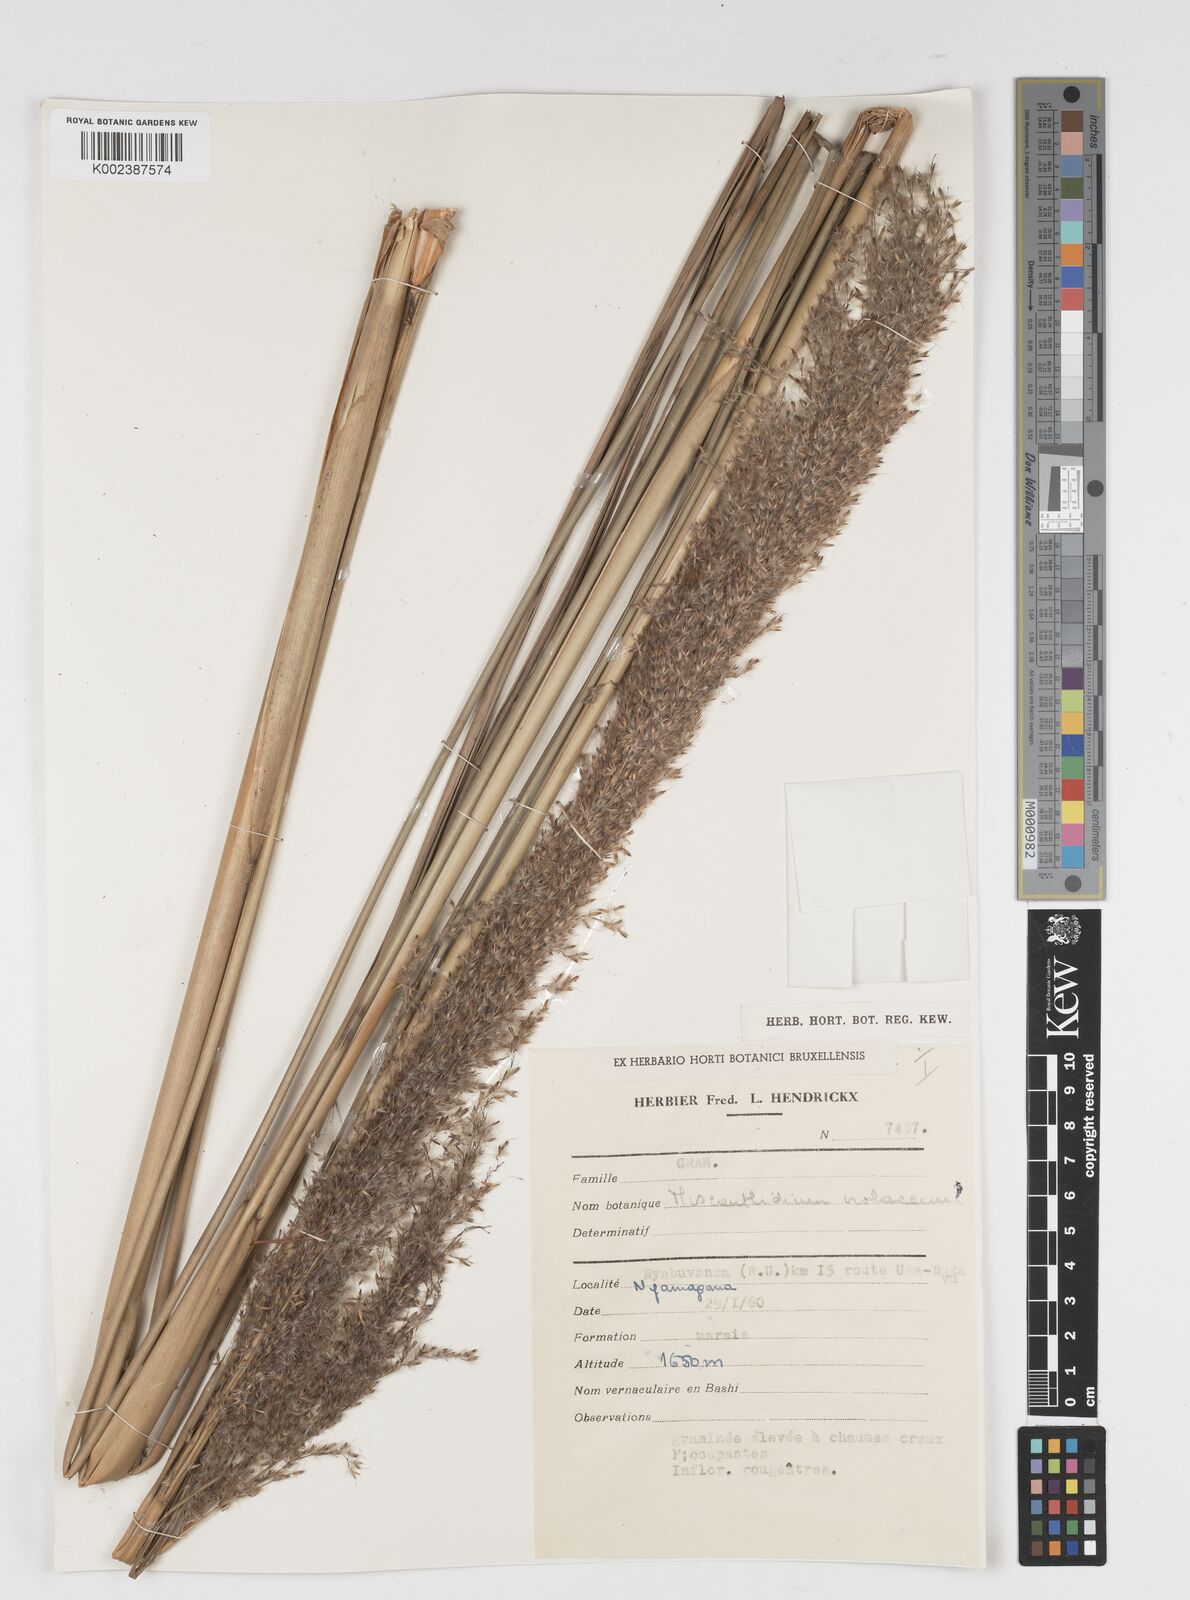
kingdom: Plantae
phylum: Tracheophyta
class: Liliopsida
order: Poales
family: Poaceae
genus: Miscanthidium
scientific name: Miscanthidium violaceum
